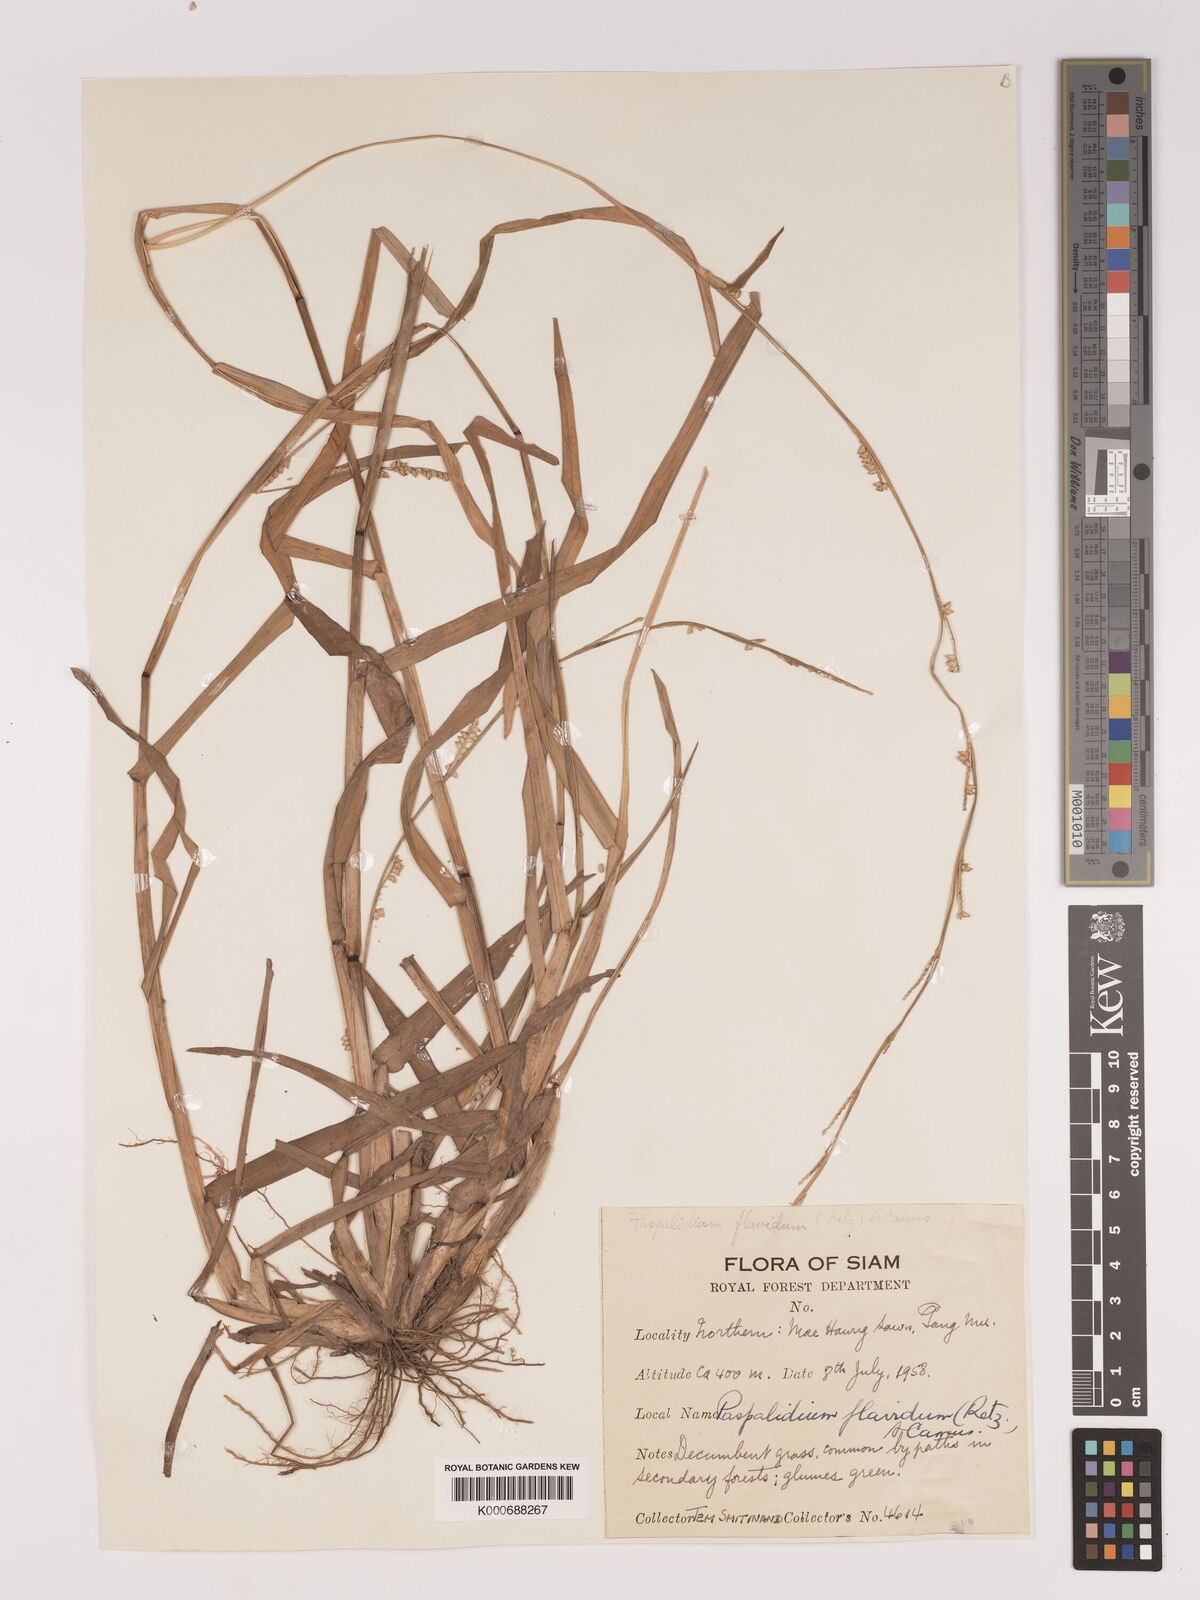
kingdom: Plantae
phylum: Tracheophyta
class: Liliopsida
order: Poales
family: Poaceae
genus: Setaria
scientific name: Setaria flavida
